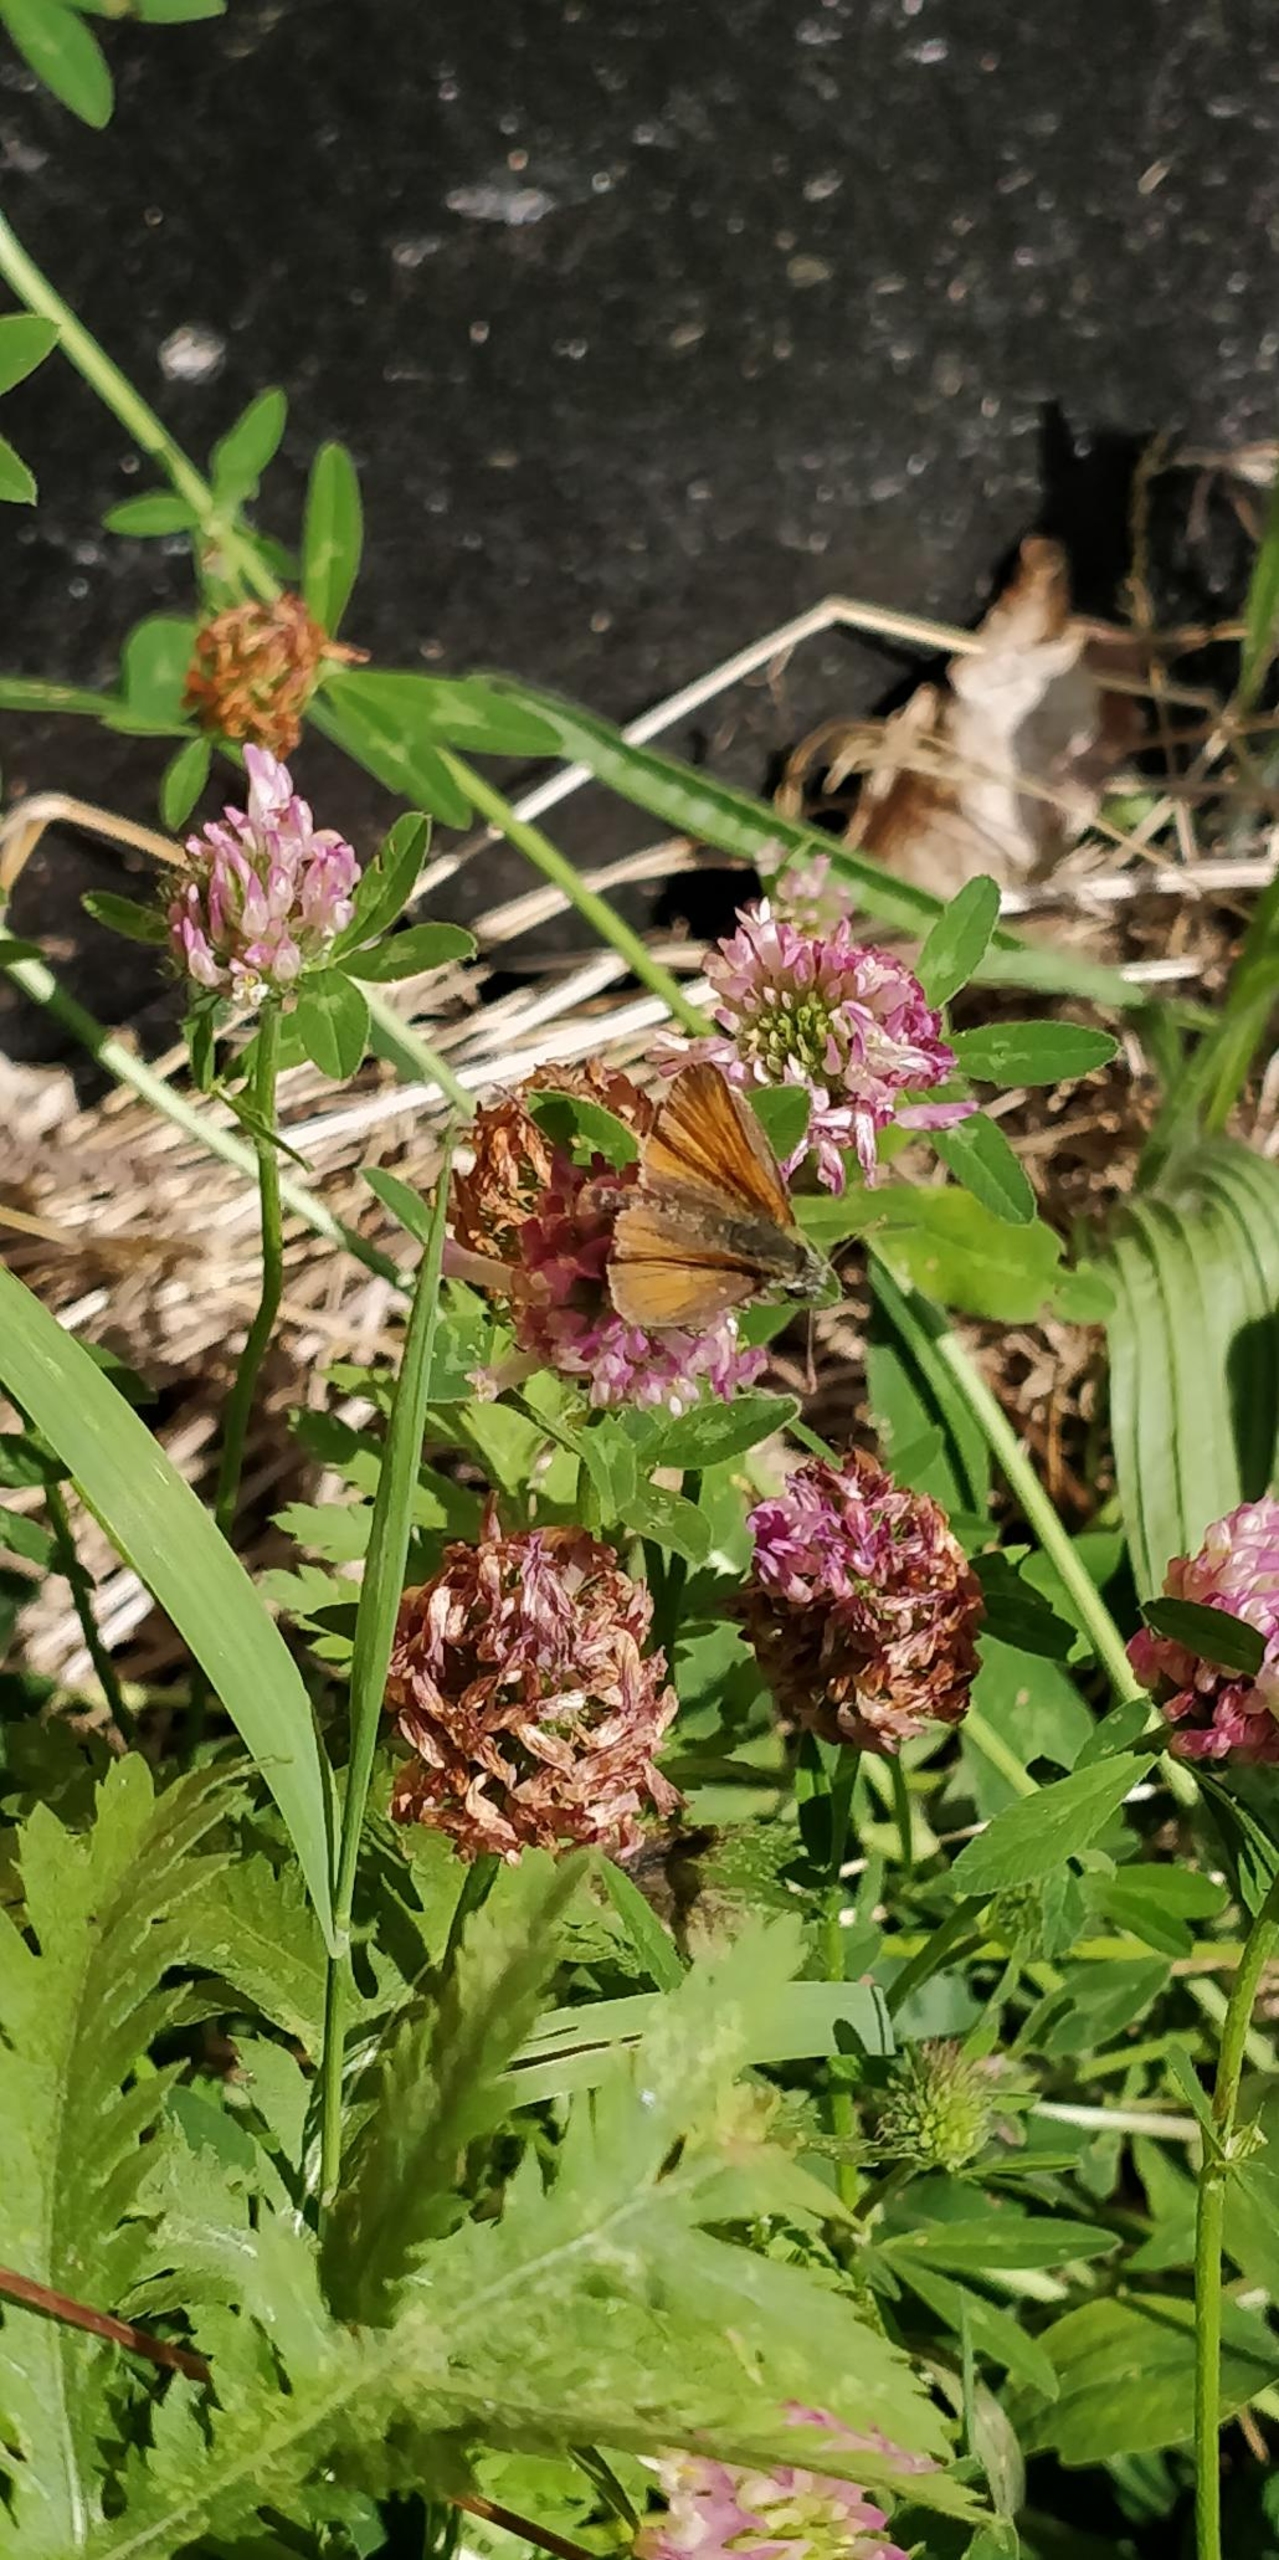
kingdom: Animalia
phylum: Arthropoda
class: Insecta
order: Lepidoptera
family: Hesperiidae
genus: Thymelicus
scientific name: Thymelicus sylvestris
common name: Skråstregbredpande
